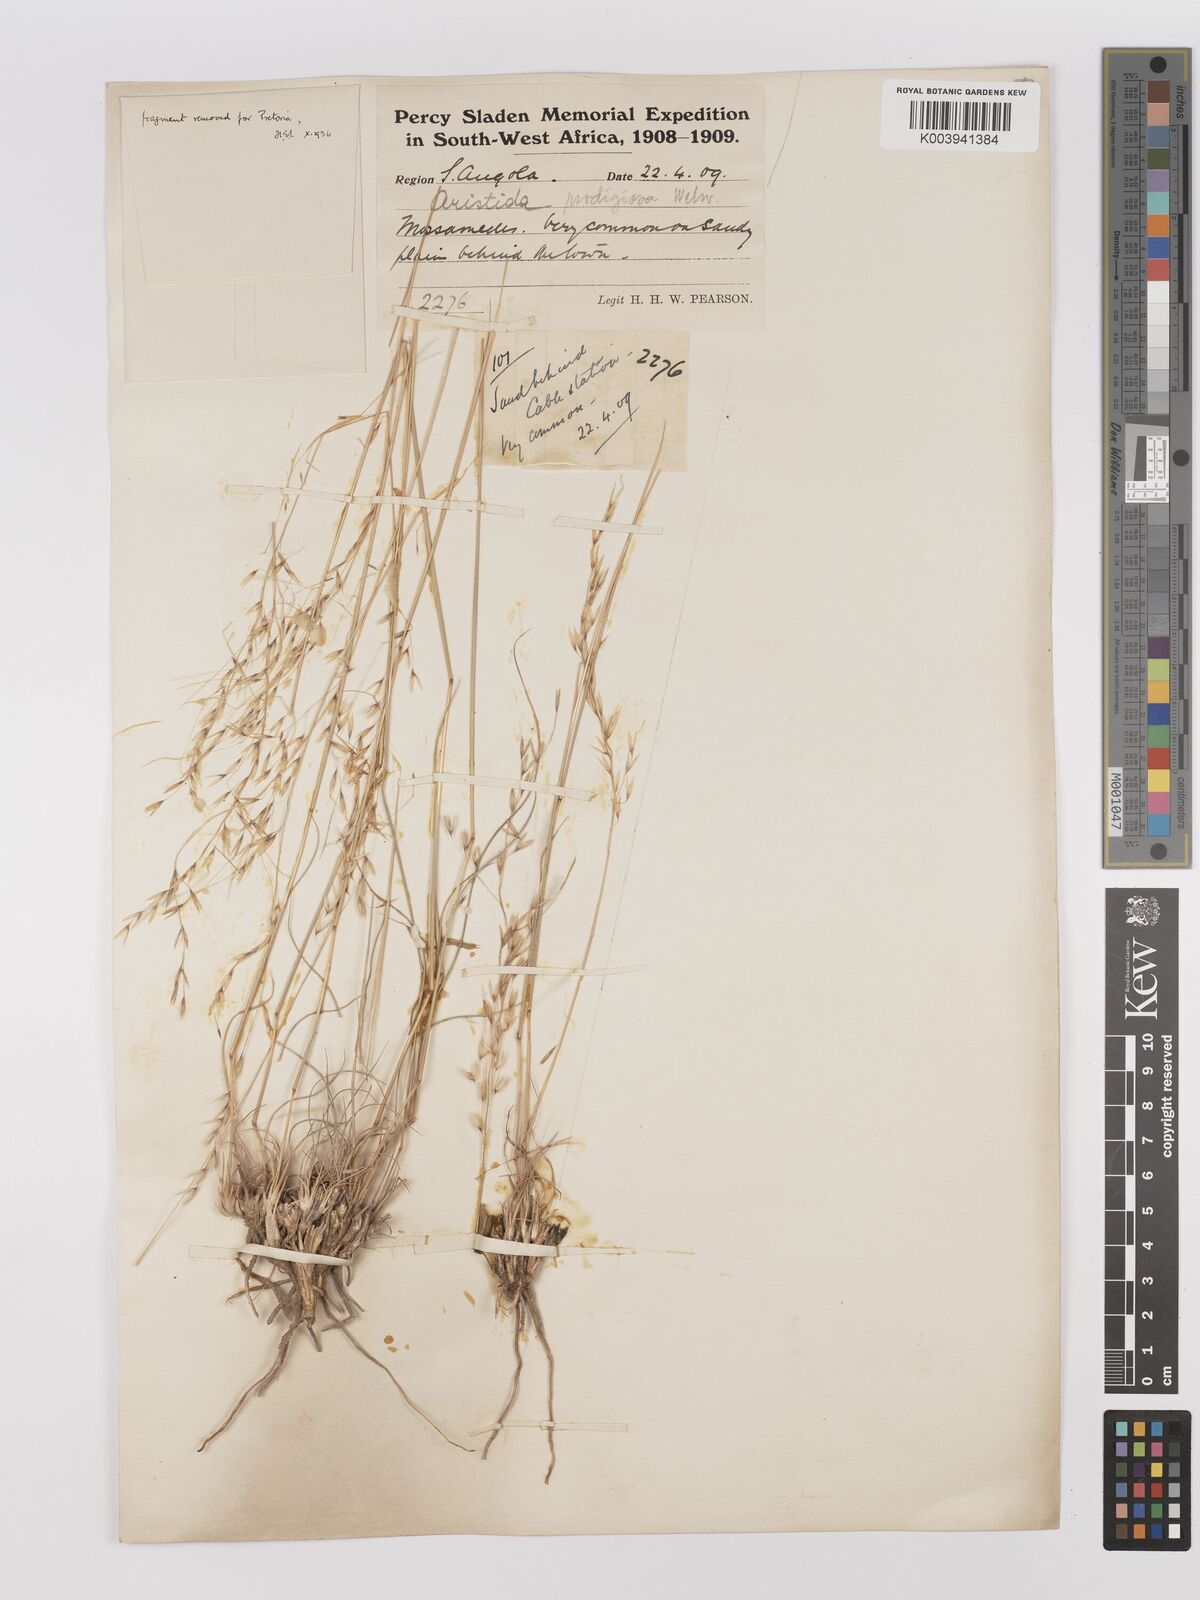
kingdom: Plantae
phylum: Tracheophyta
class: Liliopsida
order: Poales
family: Poaceae
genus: Stipagrostis
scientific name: Stipagrostis prodigiosa
